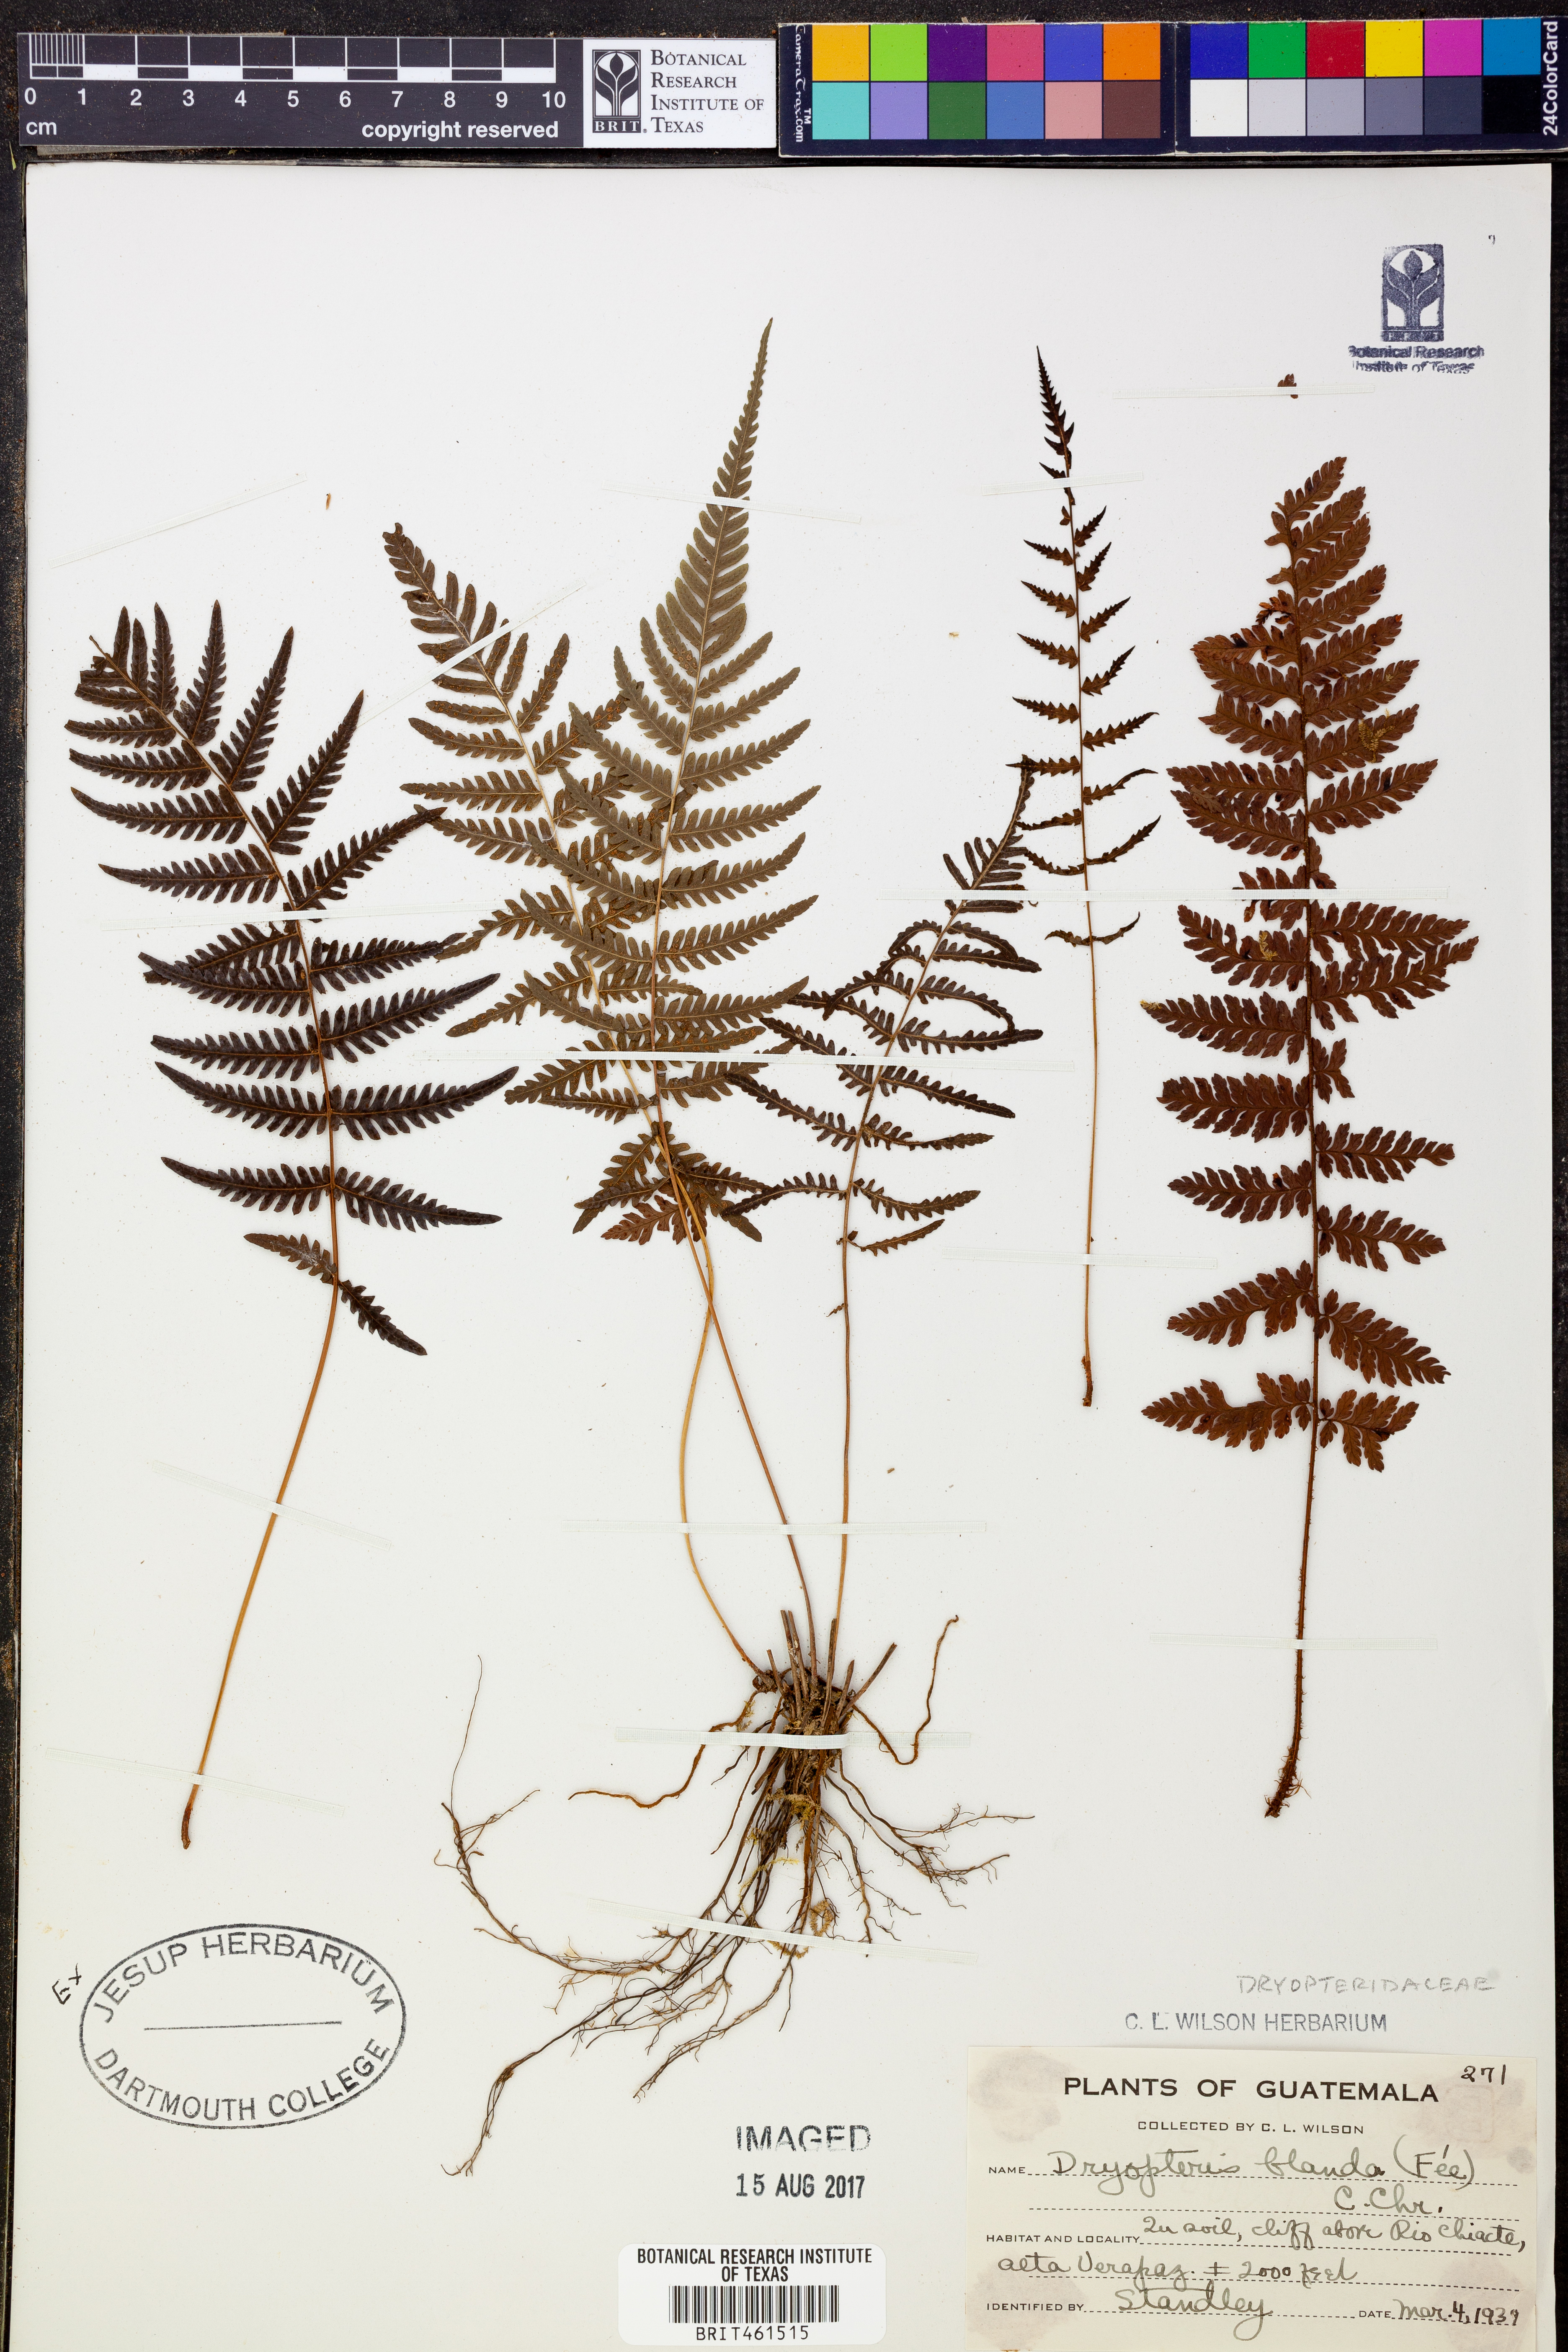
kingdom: Plantae
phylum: Tracheophyta
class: Polypodiopsida
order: Polypodiales
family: Thelypteridaceae
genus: Goniopteris
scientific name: Goniopteris blanda
